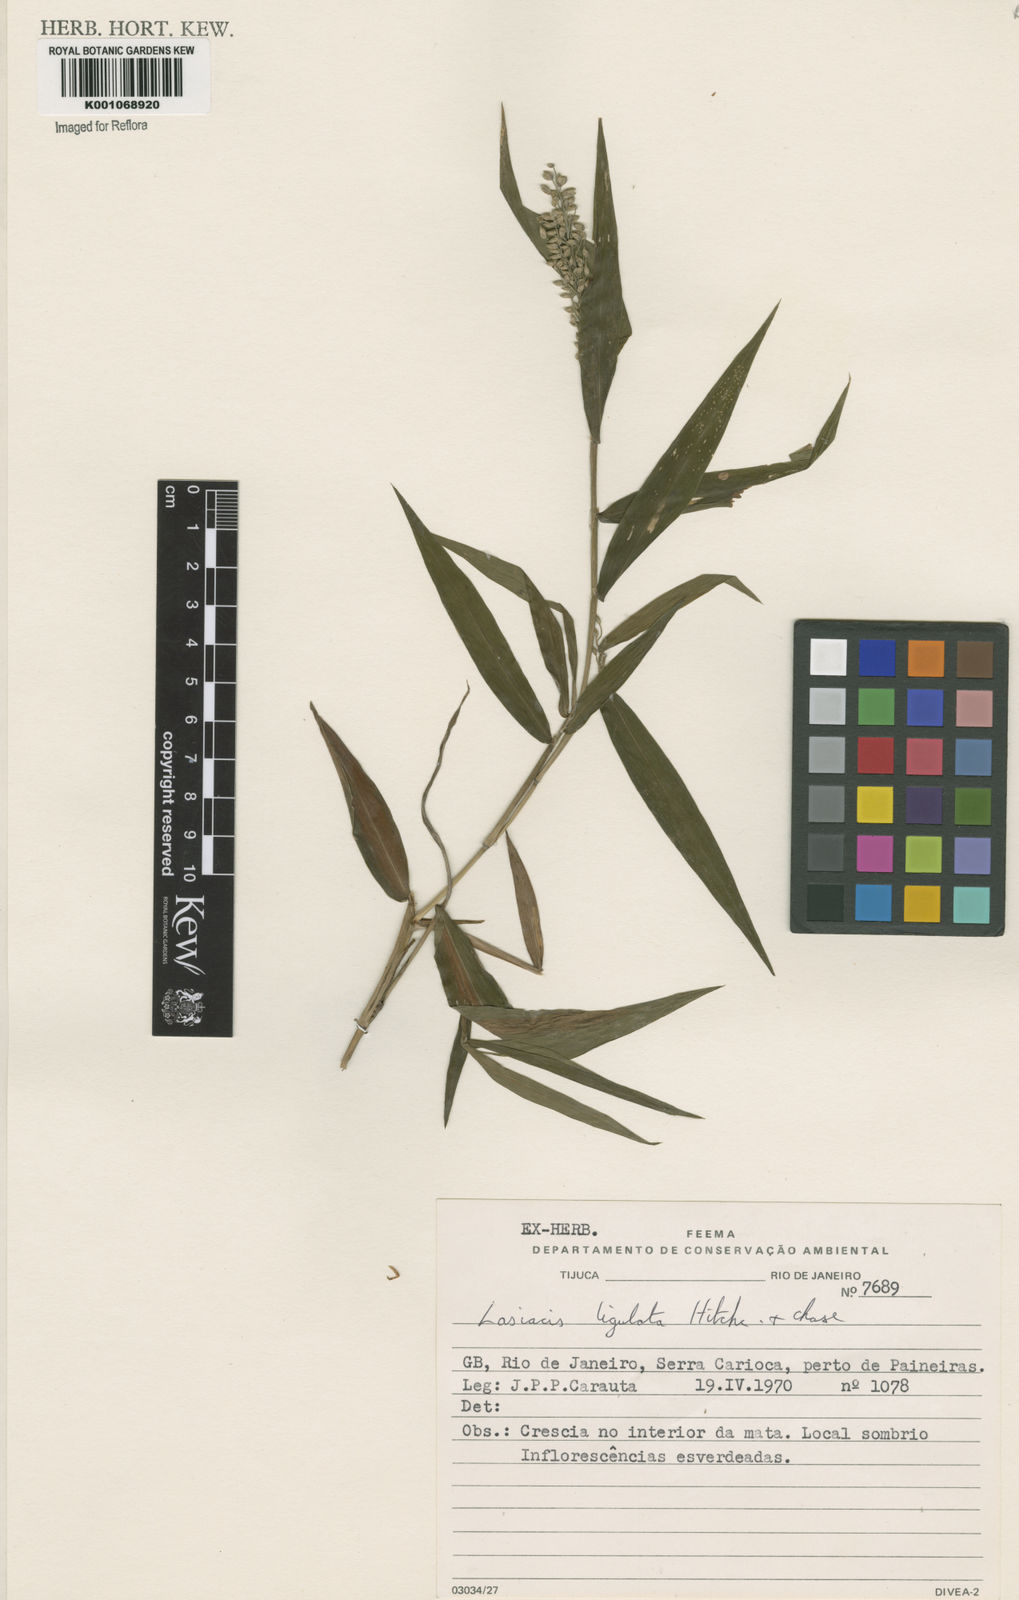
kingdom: Plantae
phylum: Tracheophyta
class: Liliopsida
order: Poales
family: Poaceae
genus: Lasiacis
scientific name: Lasiacis ligulata
